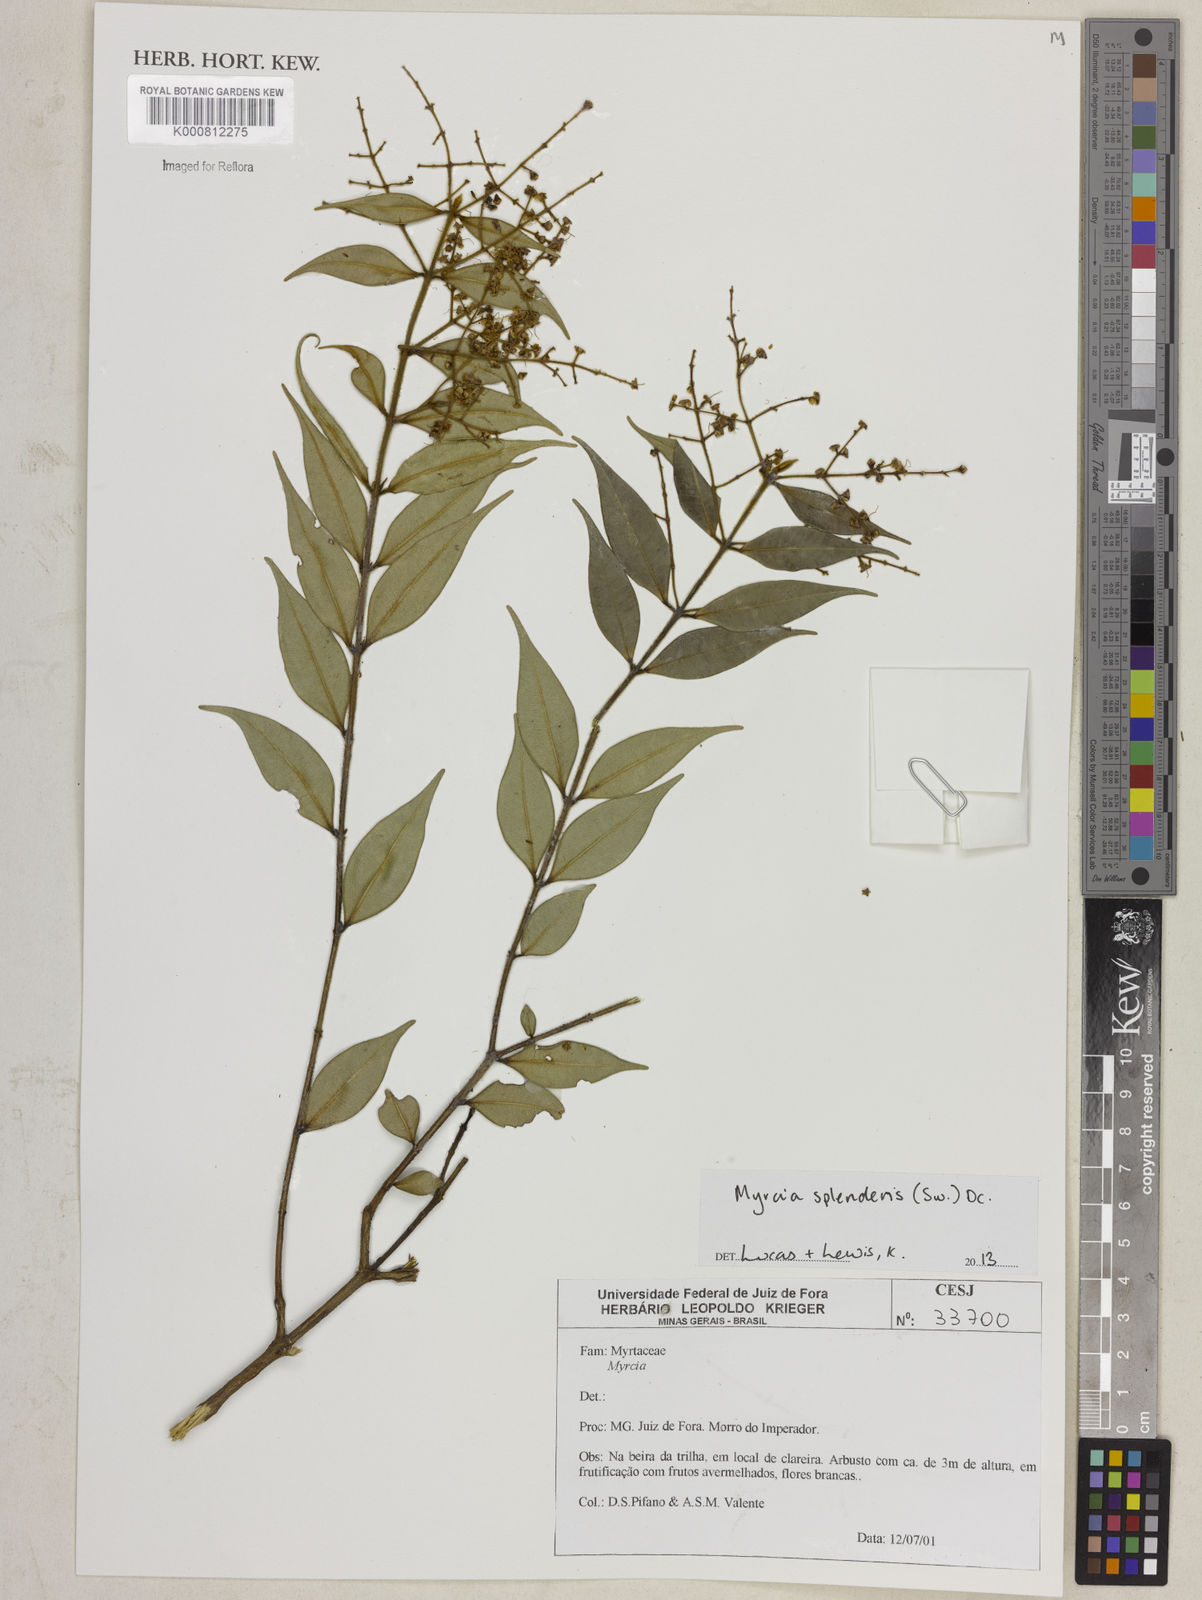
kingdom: Plantae
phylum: Tracheophyta
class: Magnoliopsida
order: Myrtales
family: Myrtaceae
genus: Myrcia
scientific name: Myrcia splendens
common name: Surinam cherry
